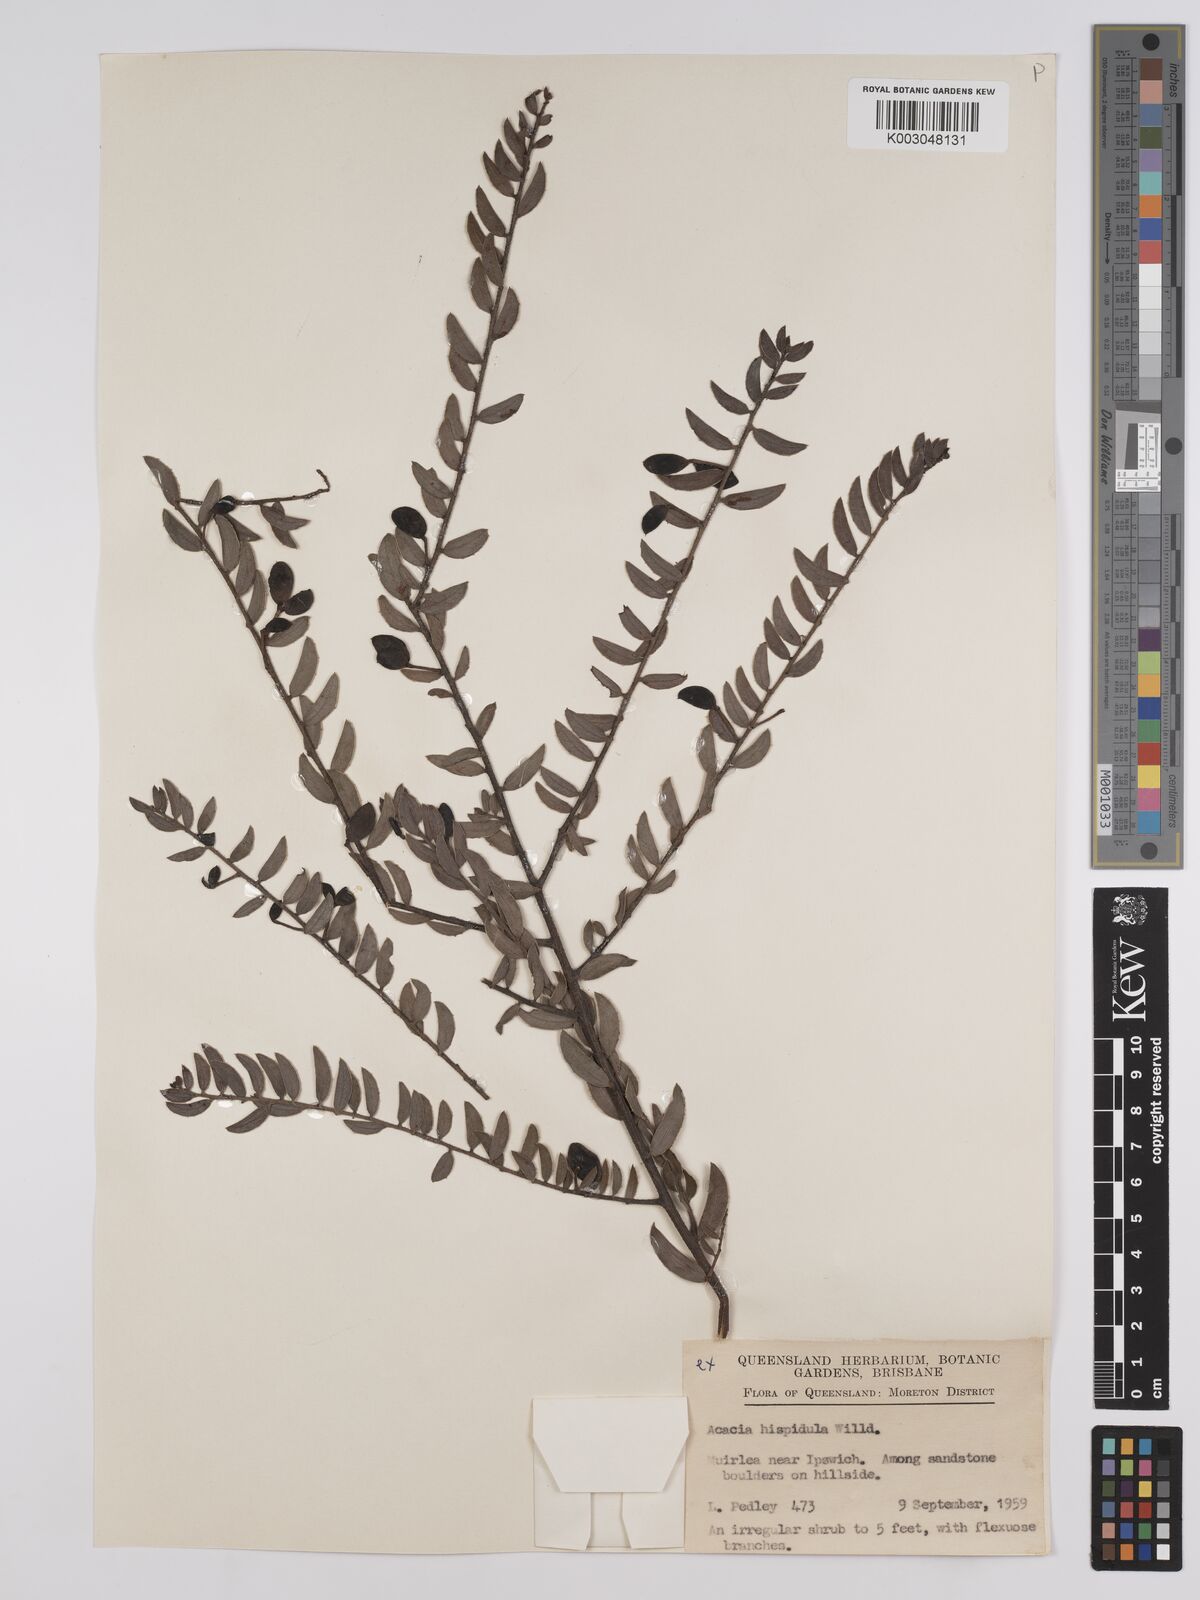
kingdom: Plantae
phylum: Tracheophyta
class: Magnoliopsida
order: Fabales
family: Fabaceae
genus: Acacia
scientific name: Acacia hispidula
